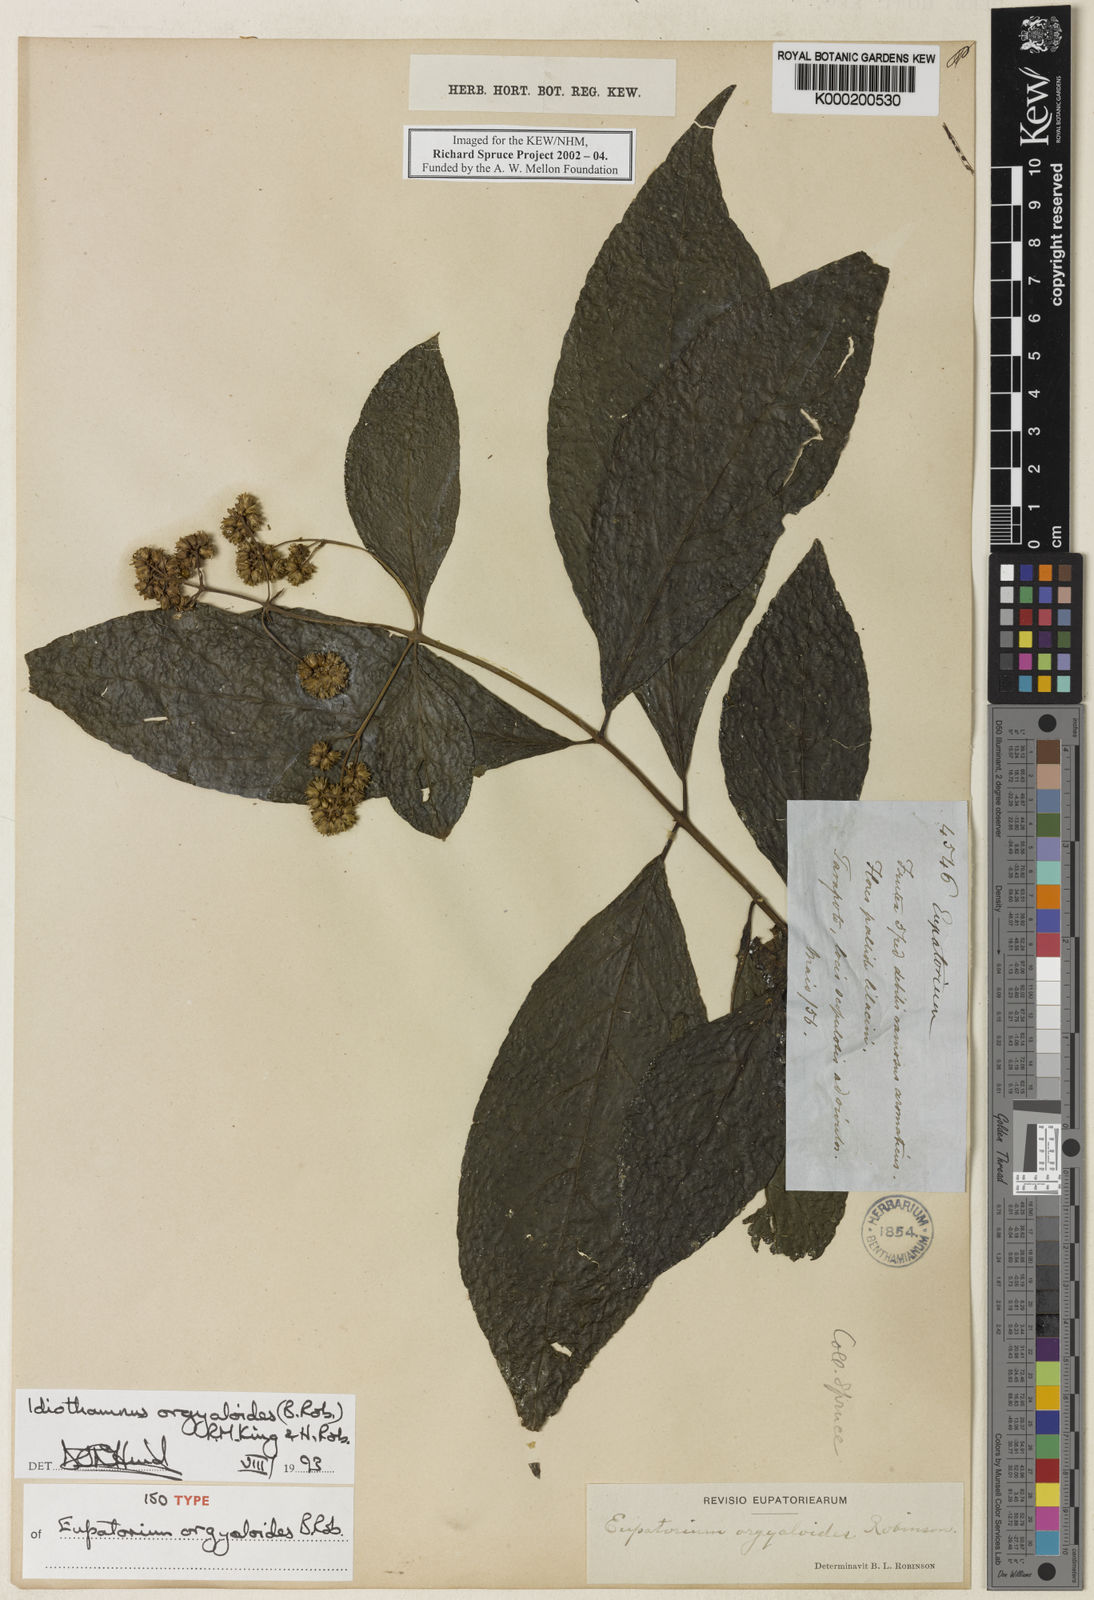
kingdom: Plantae
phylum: Tracheophyta
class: Magnoliopsida
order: Asterales
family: Asteraceae
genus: Idiothamnus
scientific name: Idiothamnus orgyaloides
